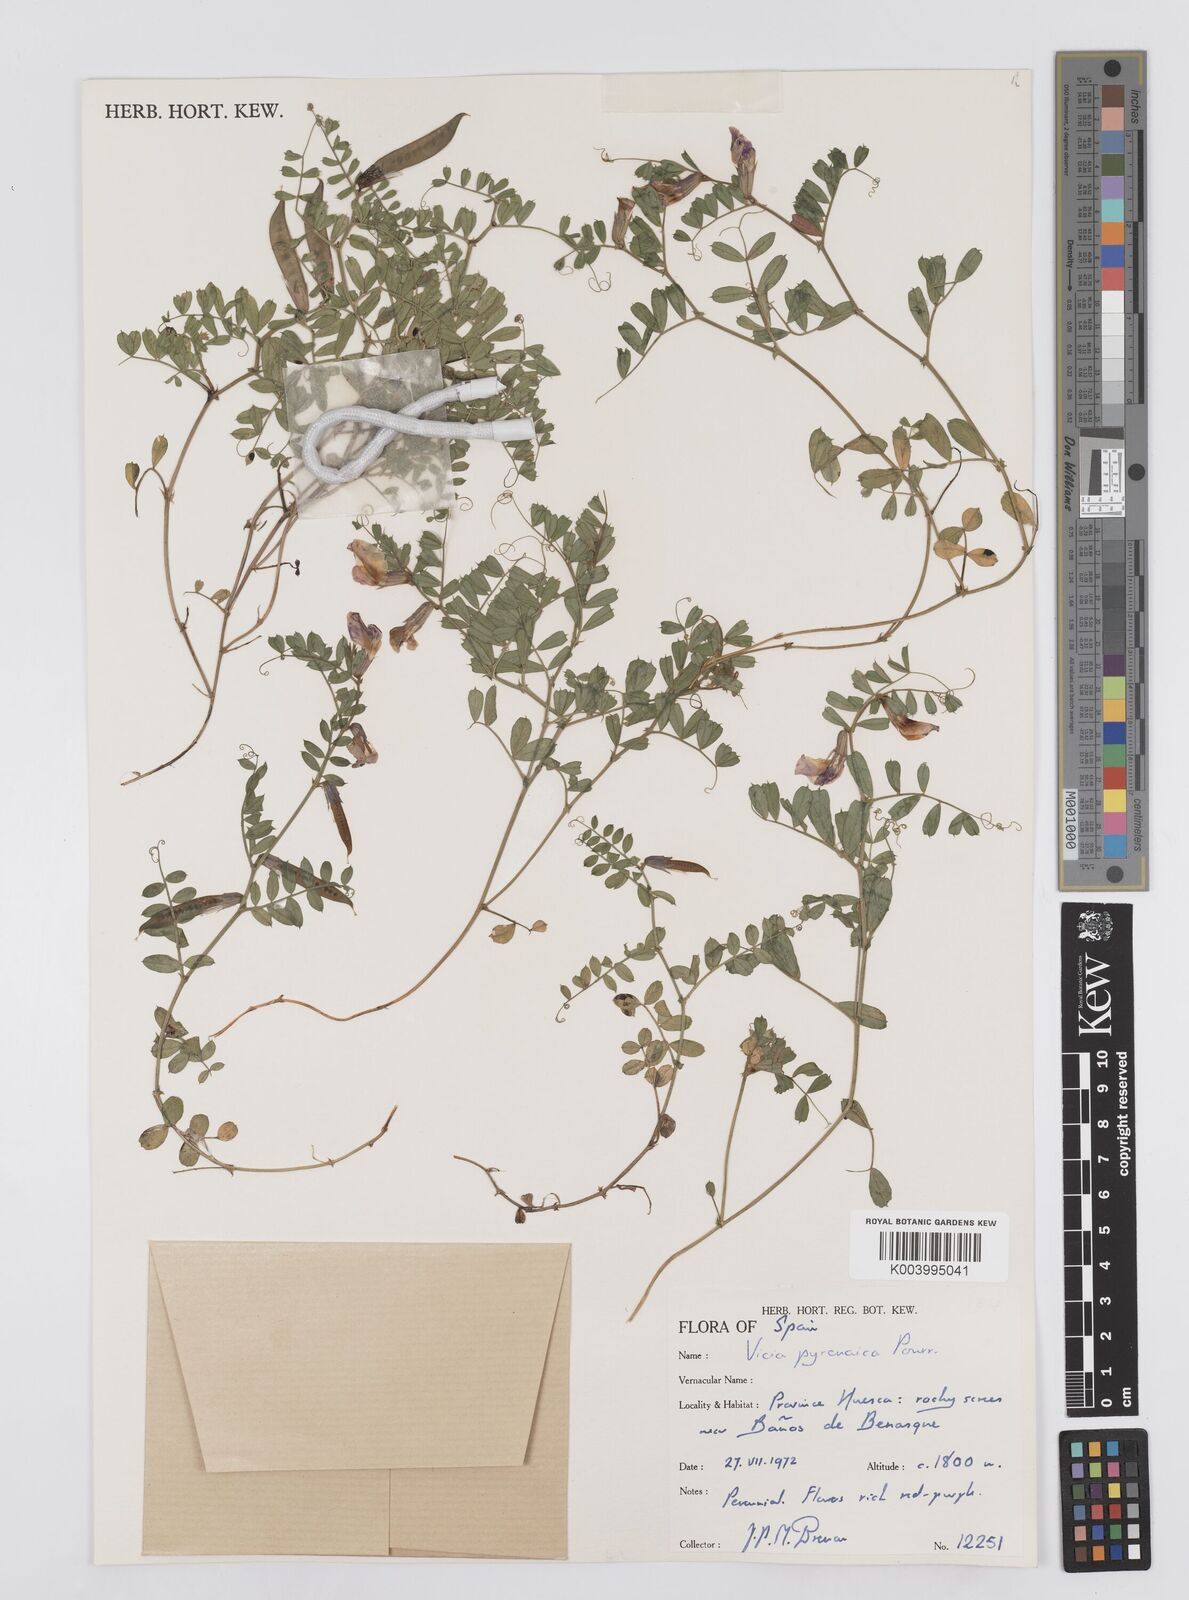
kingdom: Plantae
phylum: Tracheophyta
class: Magnoliopsida
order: Fabales
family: Fabaceae
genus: Vicia
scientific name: Vicia pyrenaica
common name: Pyrenean vetch
